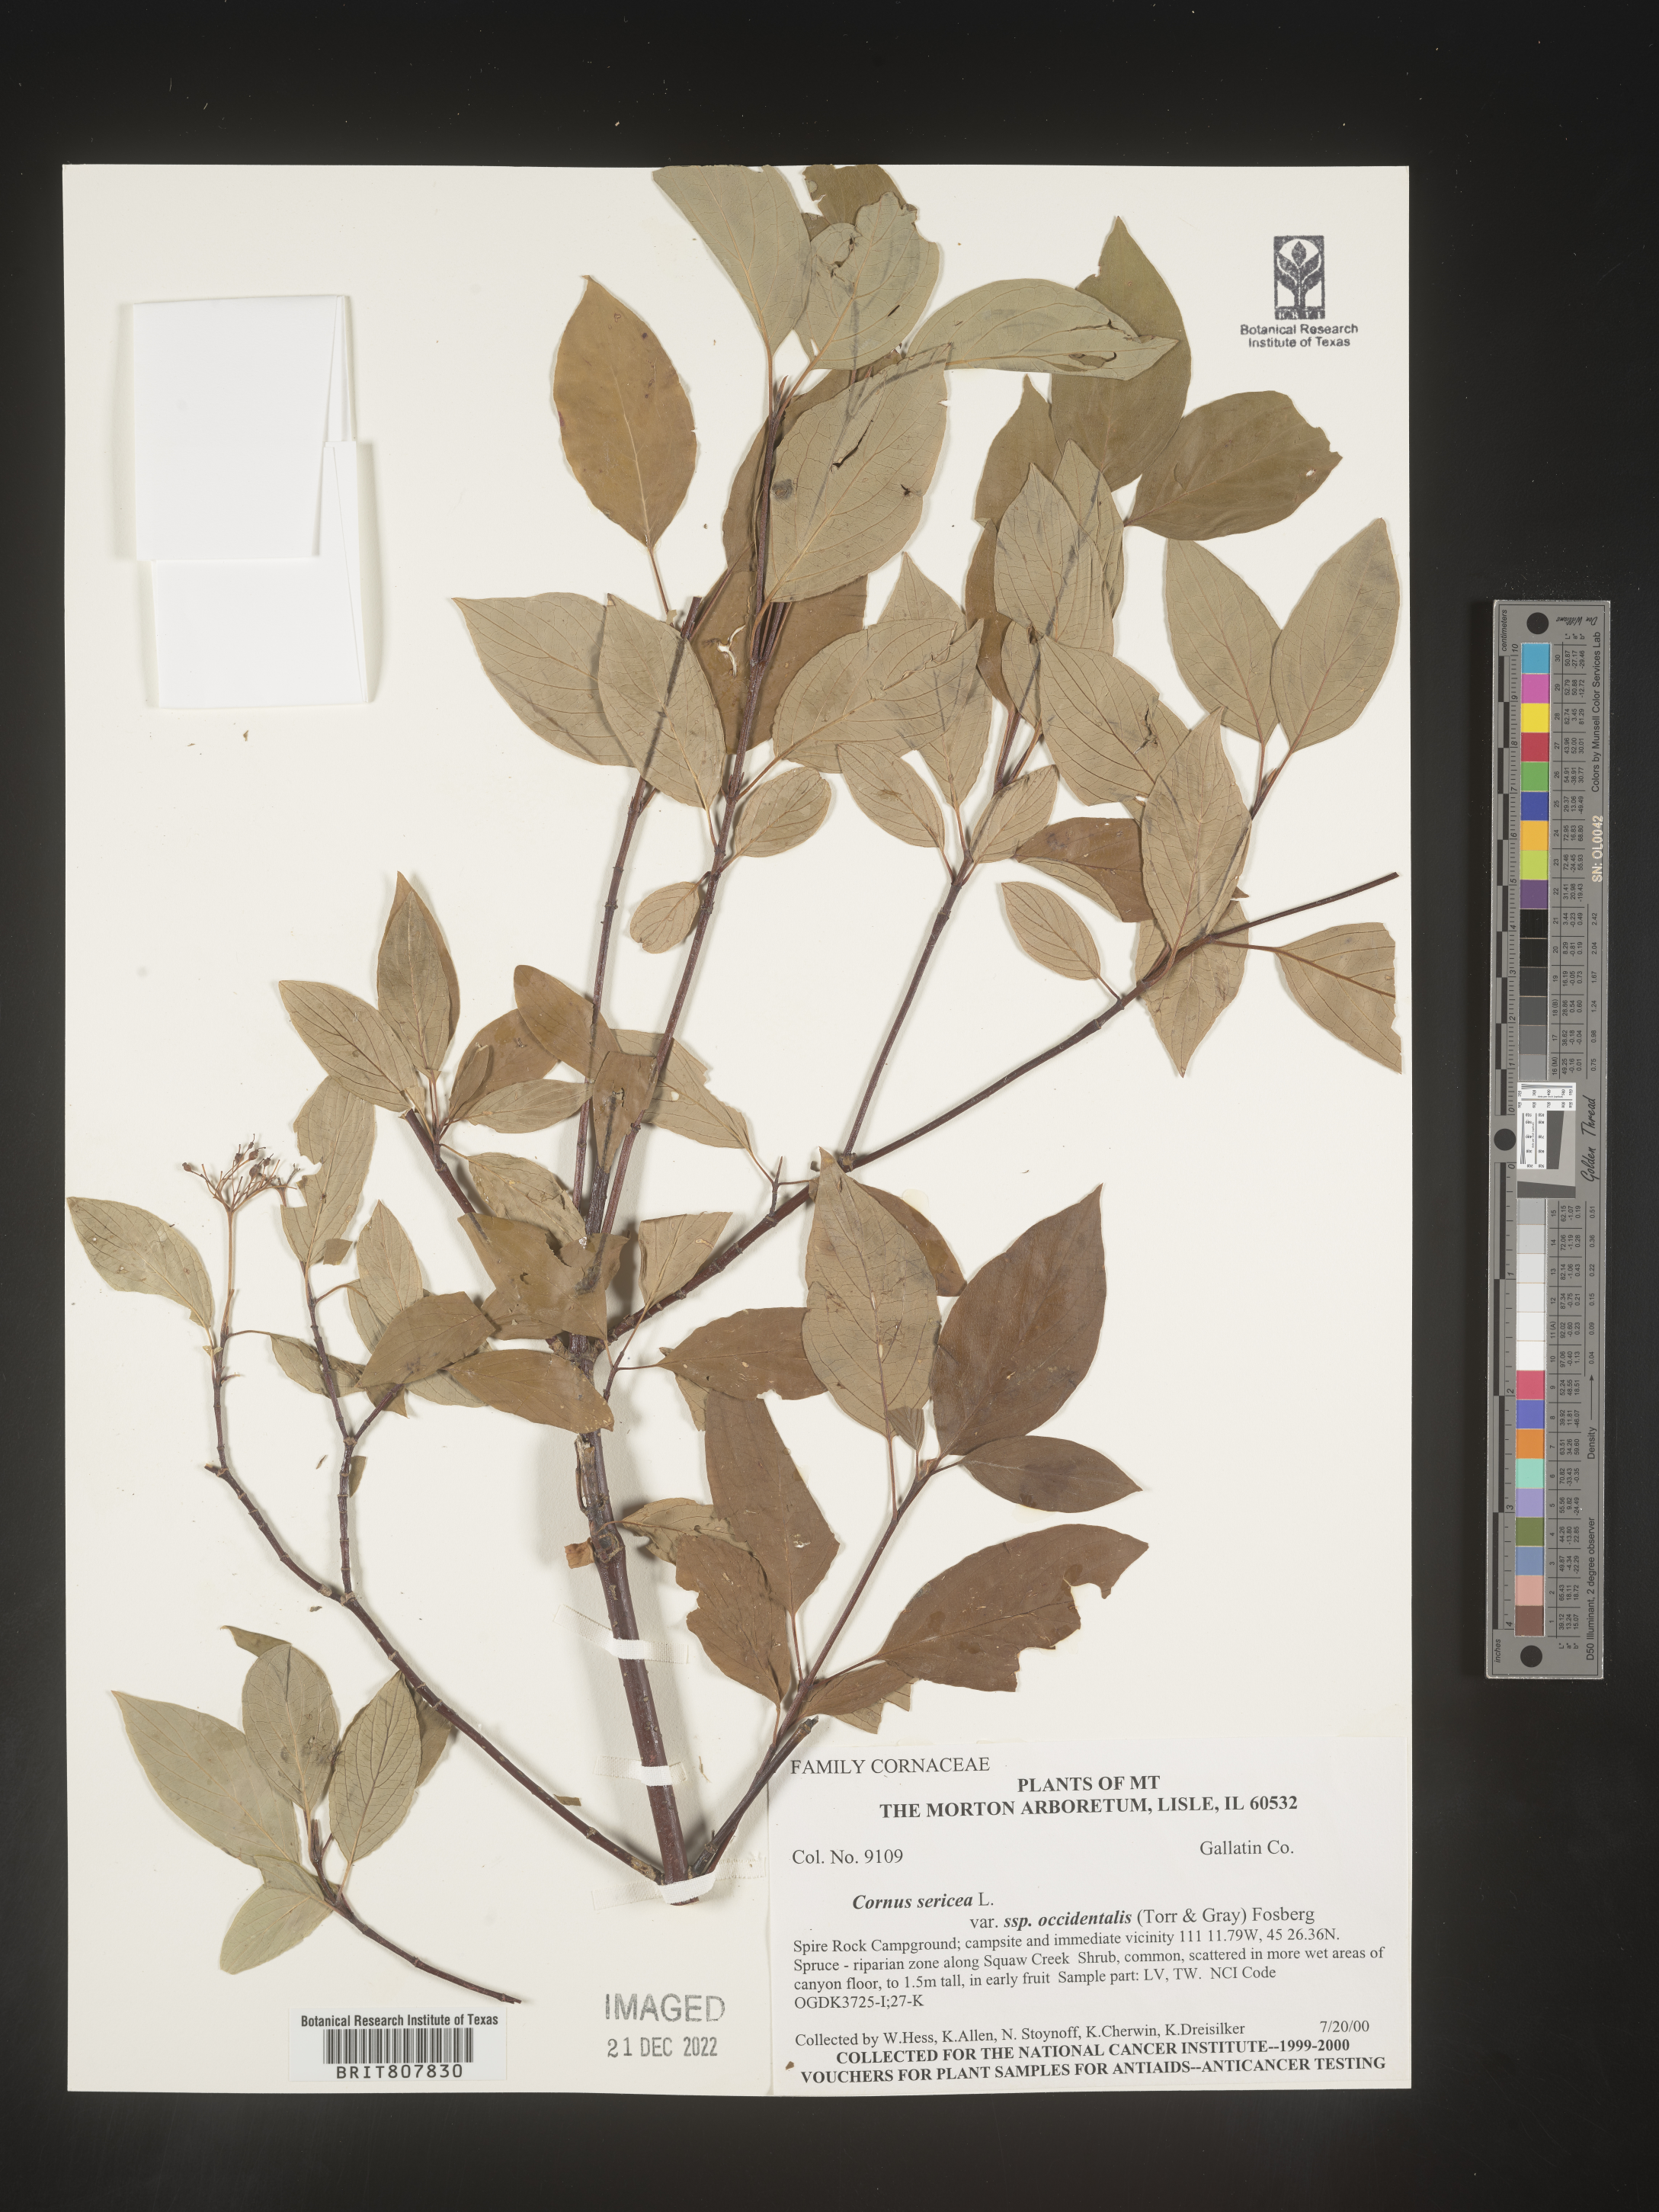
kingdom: Plantae
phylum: Tracheophyta
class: Magnoliopsida
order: Cornales
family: Cornaceae
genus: Cornus
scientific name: Cornus
